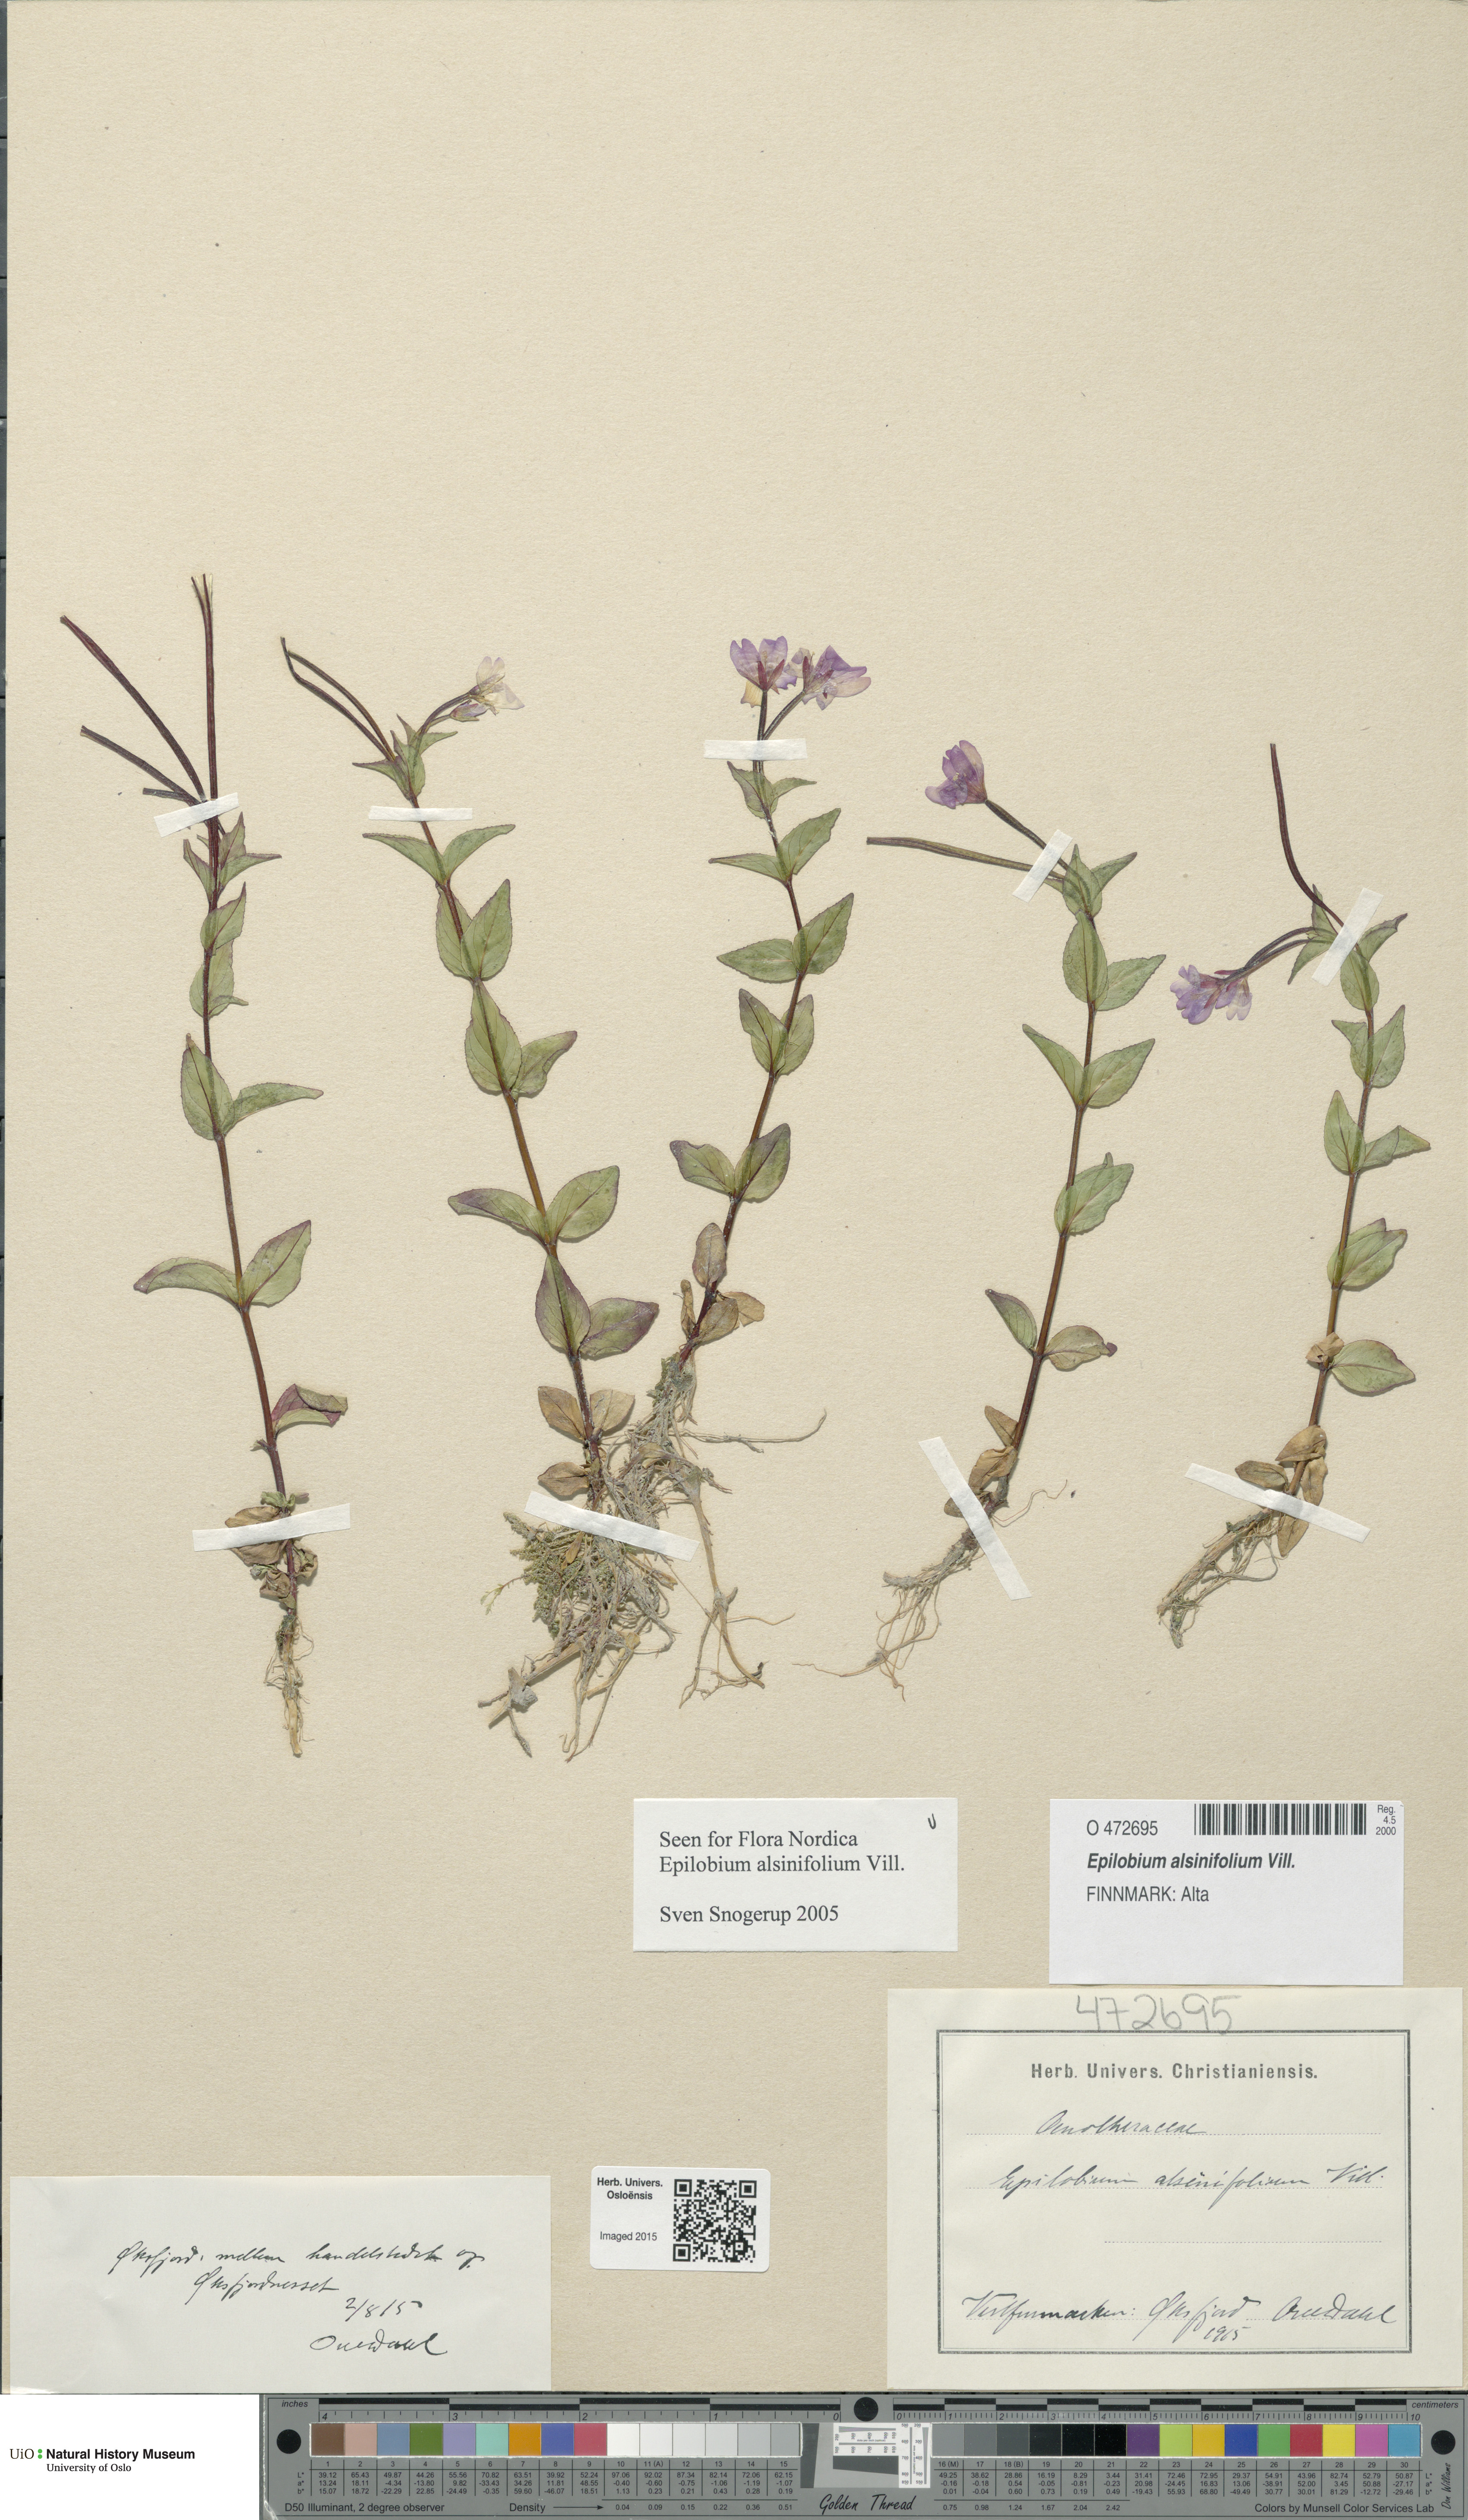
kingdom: Plantae
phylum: Tracheophyta
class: Magnoliopsida
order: Myrtales
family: Onagraceae
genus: Epilobium
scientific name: Epilobium alsinifolium
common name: Chickweed willowherb
